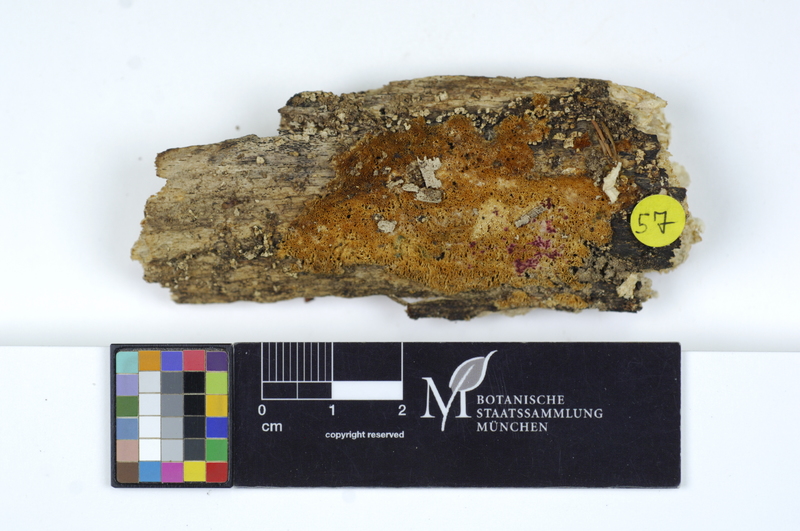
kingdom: Fungi
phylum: Basidiomycota
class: Agaricomycetes
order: Hymenochaetales
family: Schizoporaceae
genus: Xylodon
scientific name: Xylodon flaviporus
